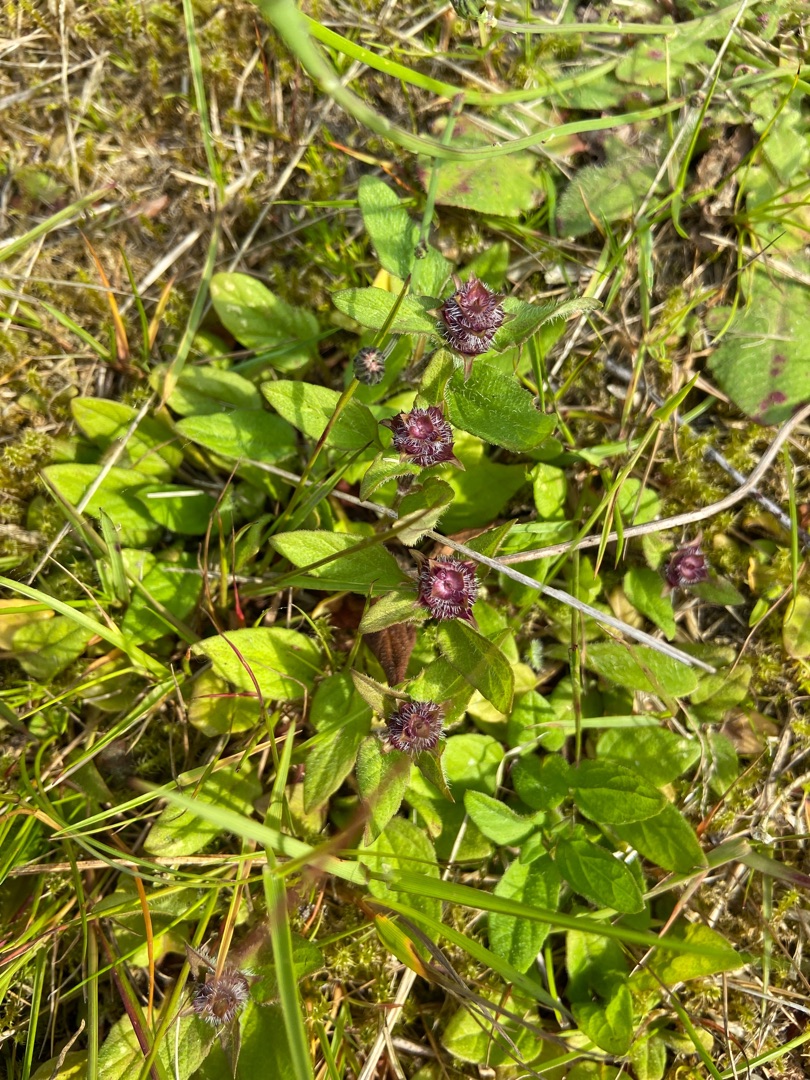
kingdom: Plantae
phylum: Tracheophyta
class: Magnoliopsida
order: Lamiales
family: Lamiaceae
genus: Prunella
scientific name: Prunella vulgaris
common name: Almindelig brunelle
